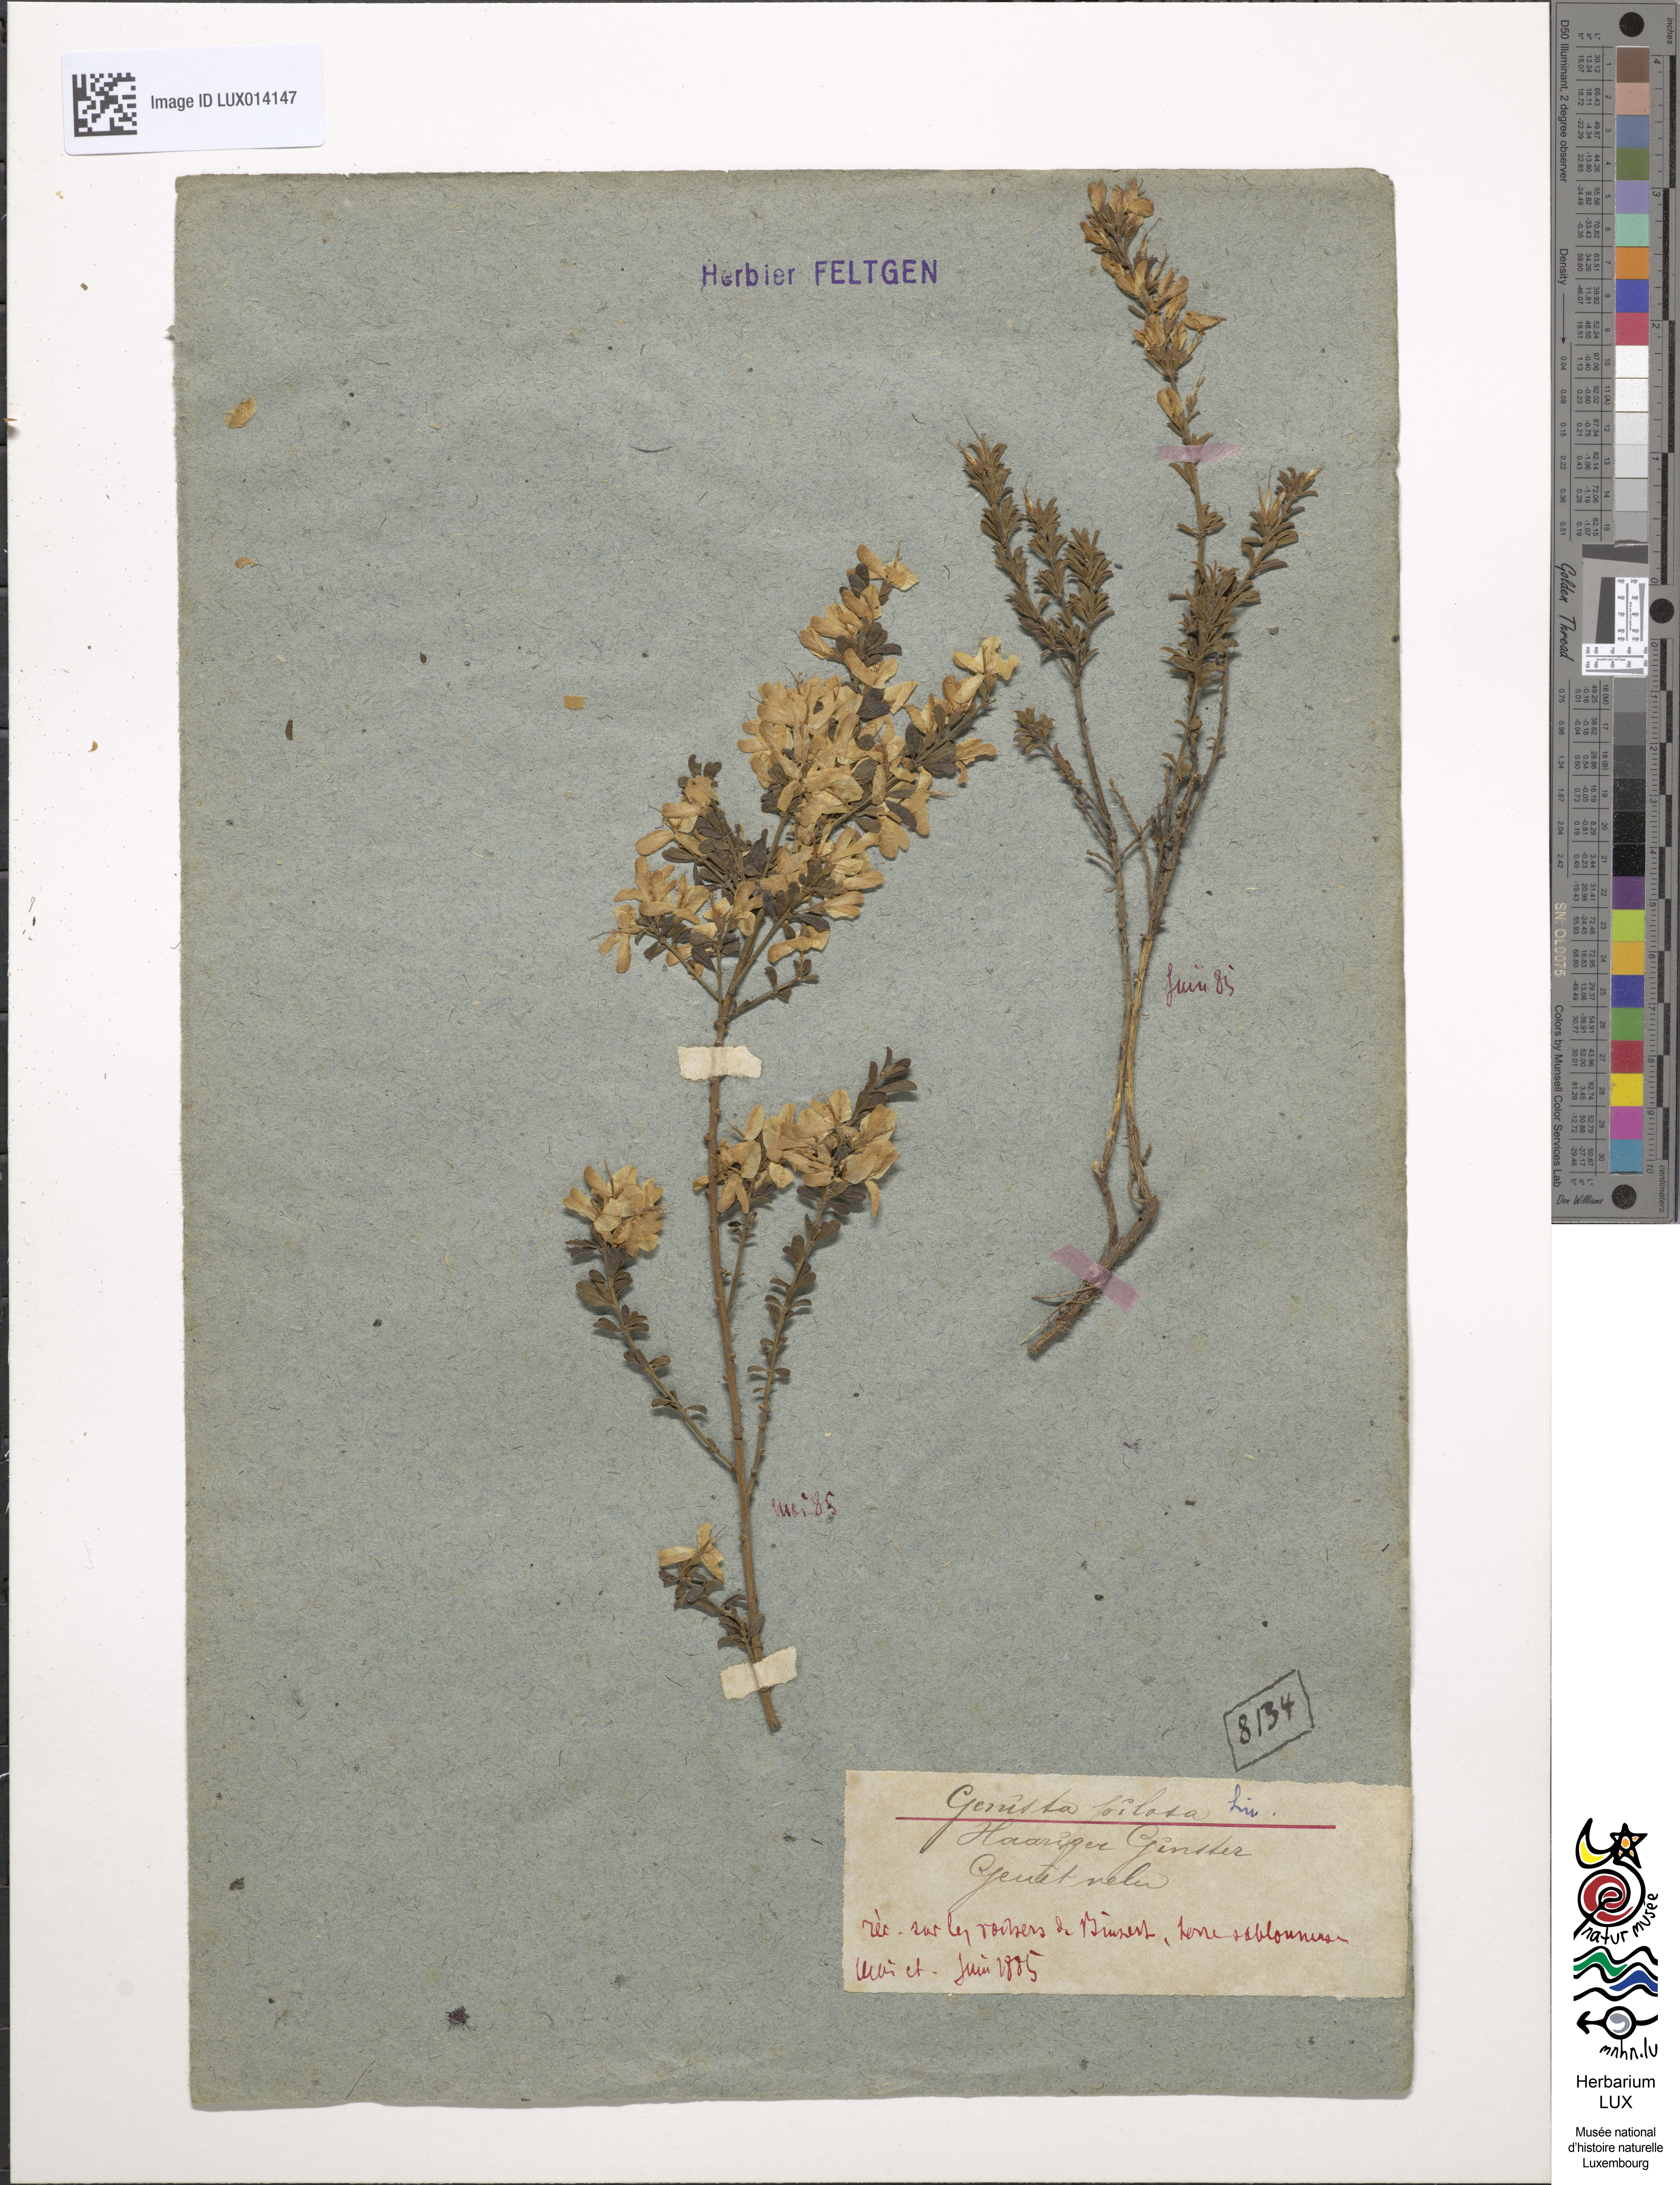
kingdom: Plantae
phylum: Tracheophyta
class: Magnoliopsida
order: Fabales
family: Fabaceae
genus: Genista
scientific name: Genista pilosa
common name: Hairy greenweed
